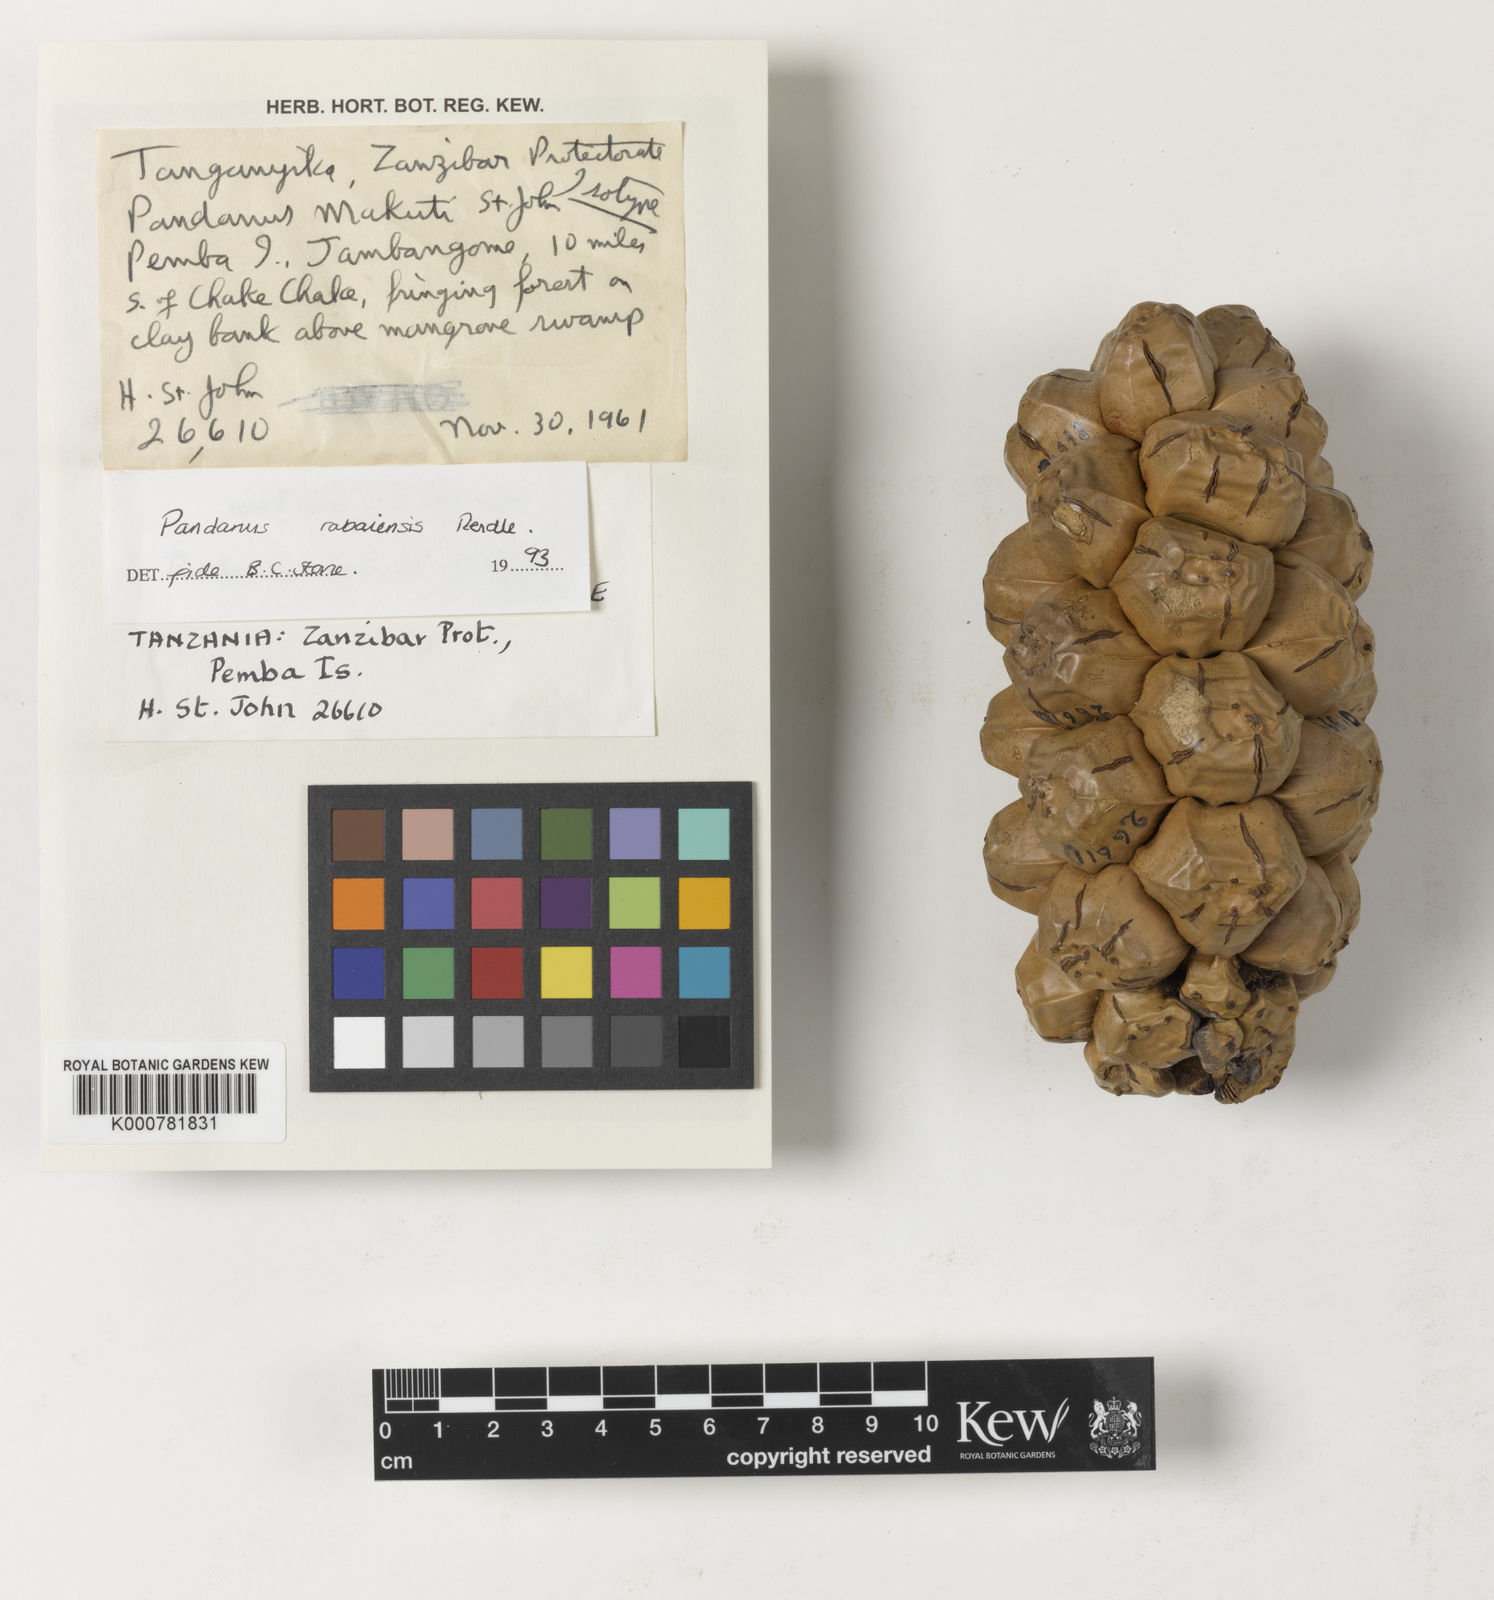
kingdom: Plantae
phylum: Tracheophyta
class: Liliopsida
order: Pandanales
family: Pandanaceae
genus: Pandanus
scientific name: Pandanus rabaiensis
